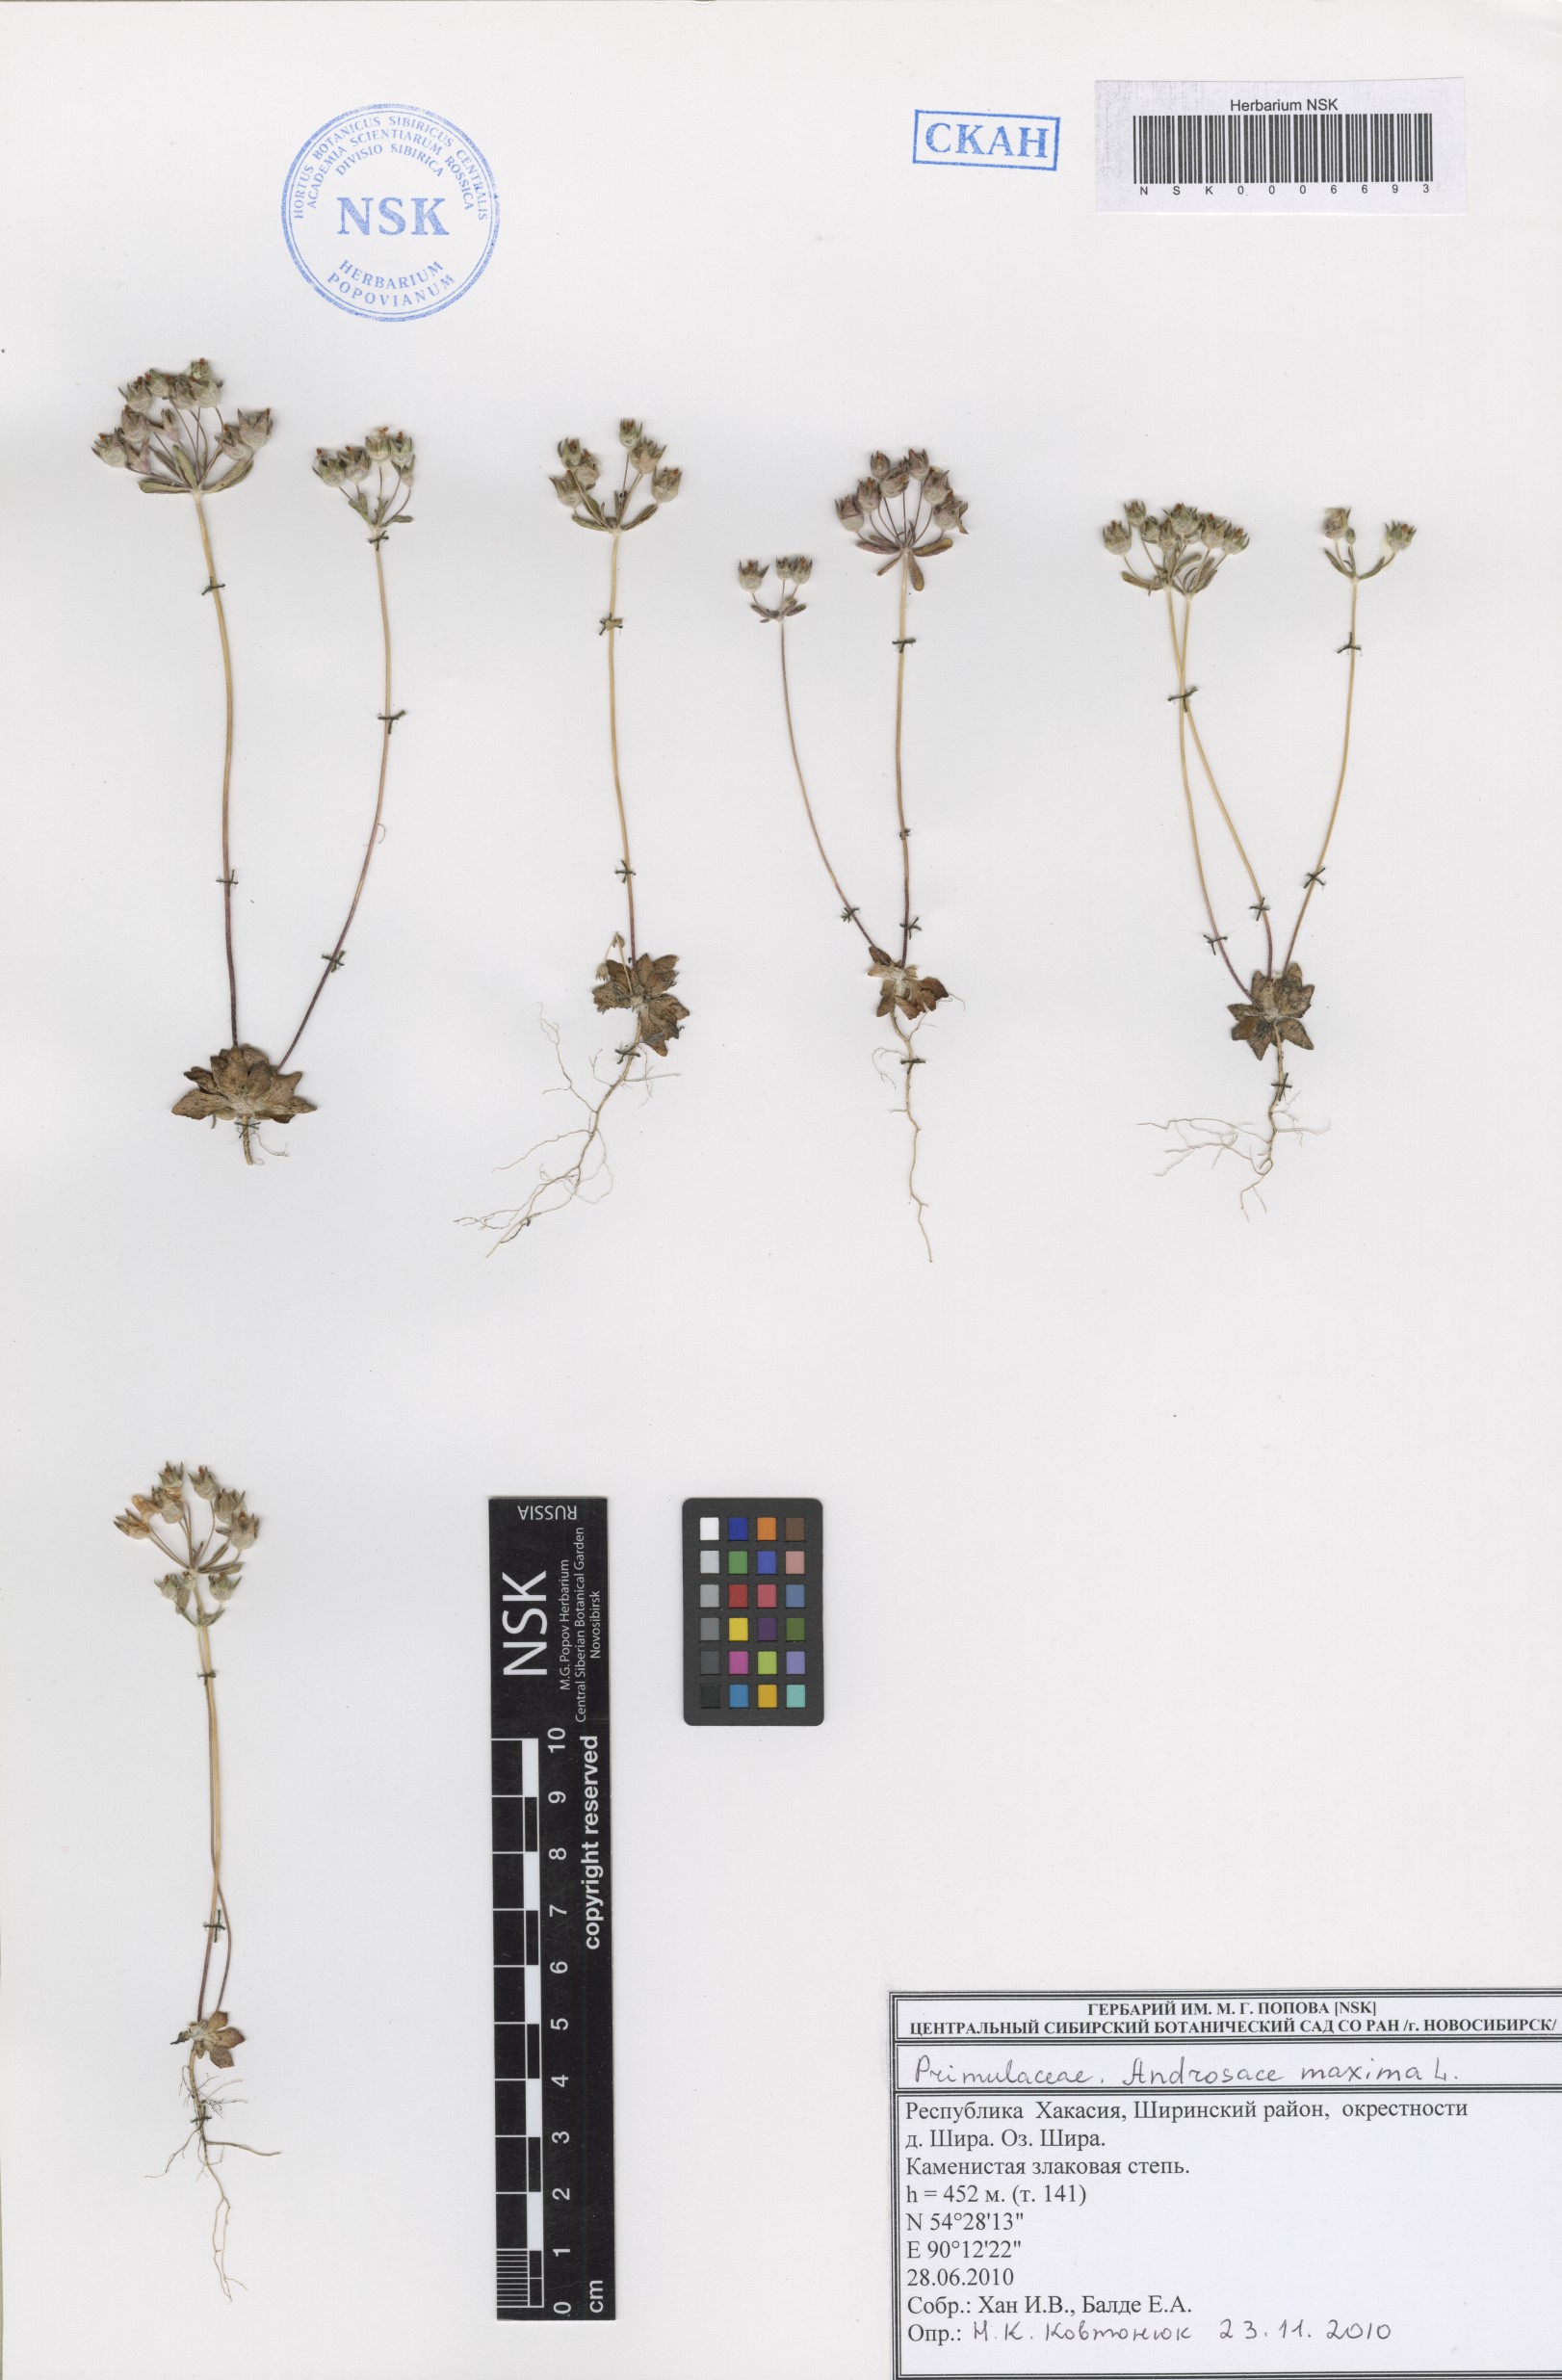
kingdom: Plantae
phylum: Tracheophyta
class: Magnoliopsida
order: Ericales
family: Primulaceae
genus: Androsace
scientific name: Androsace maxima
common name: Annual androsace
